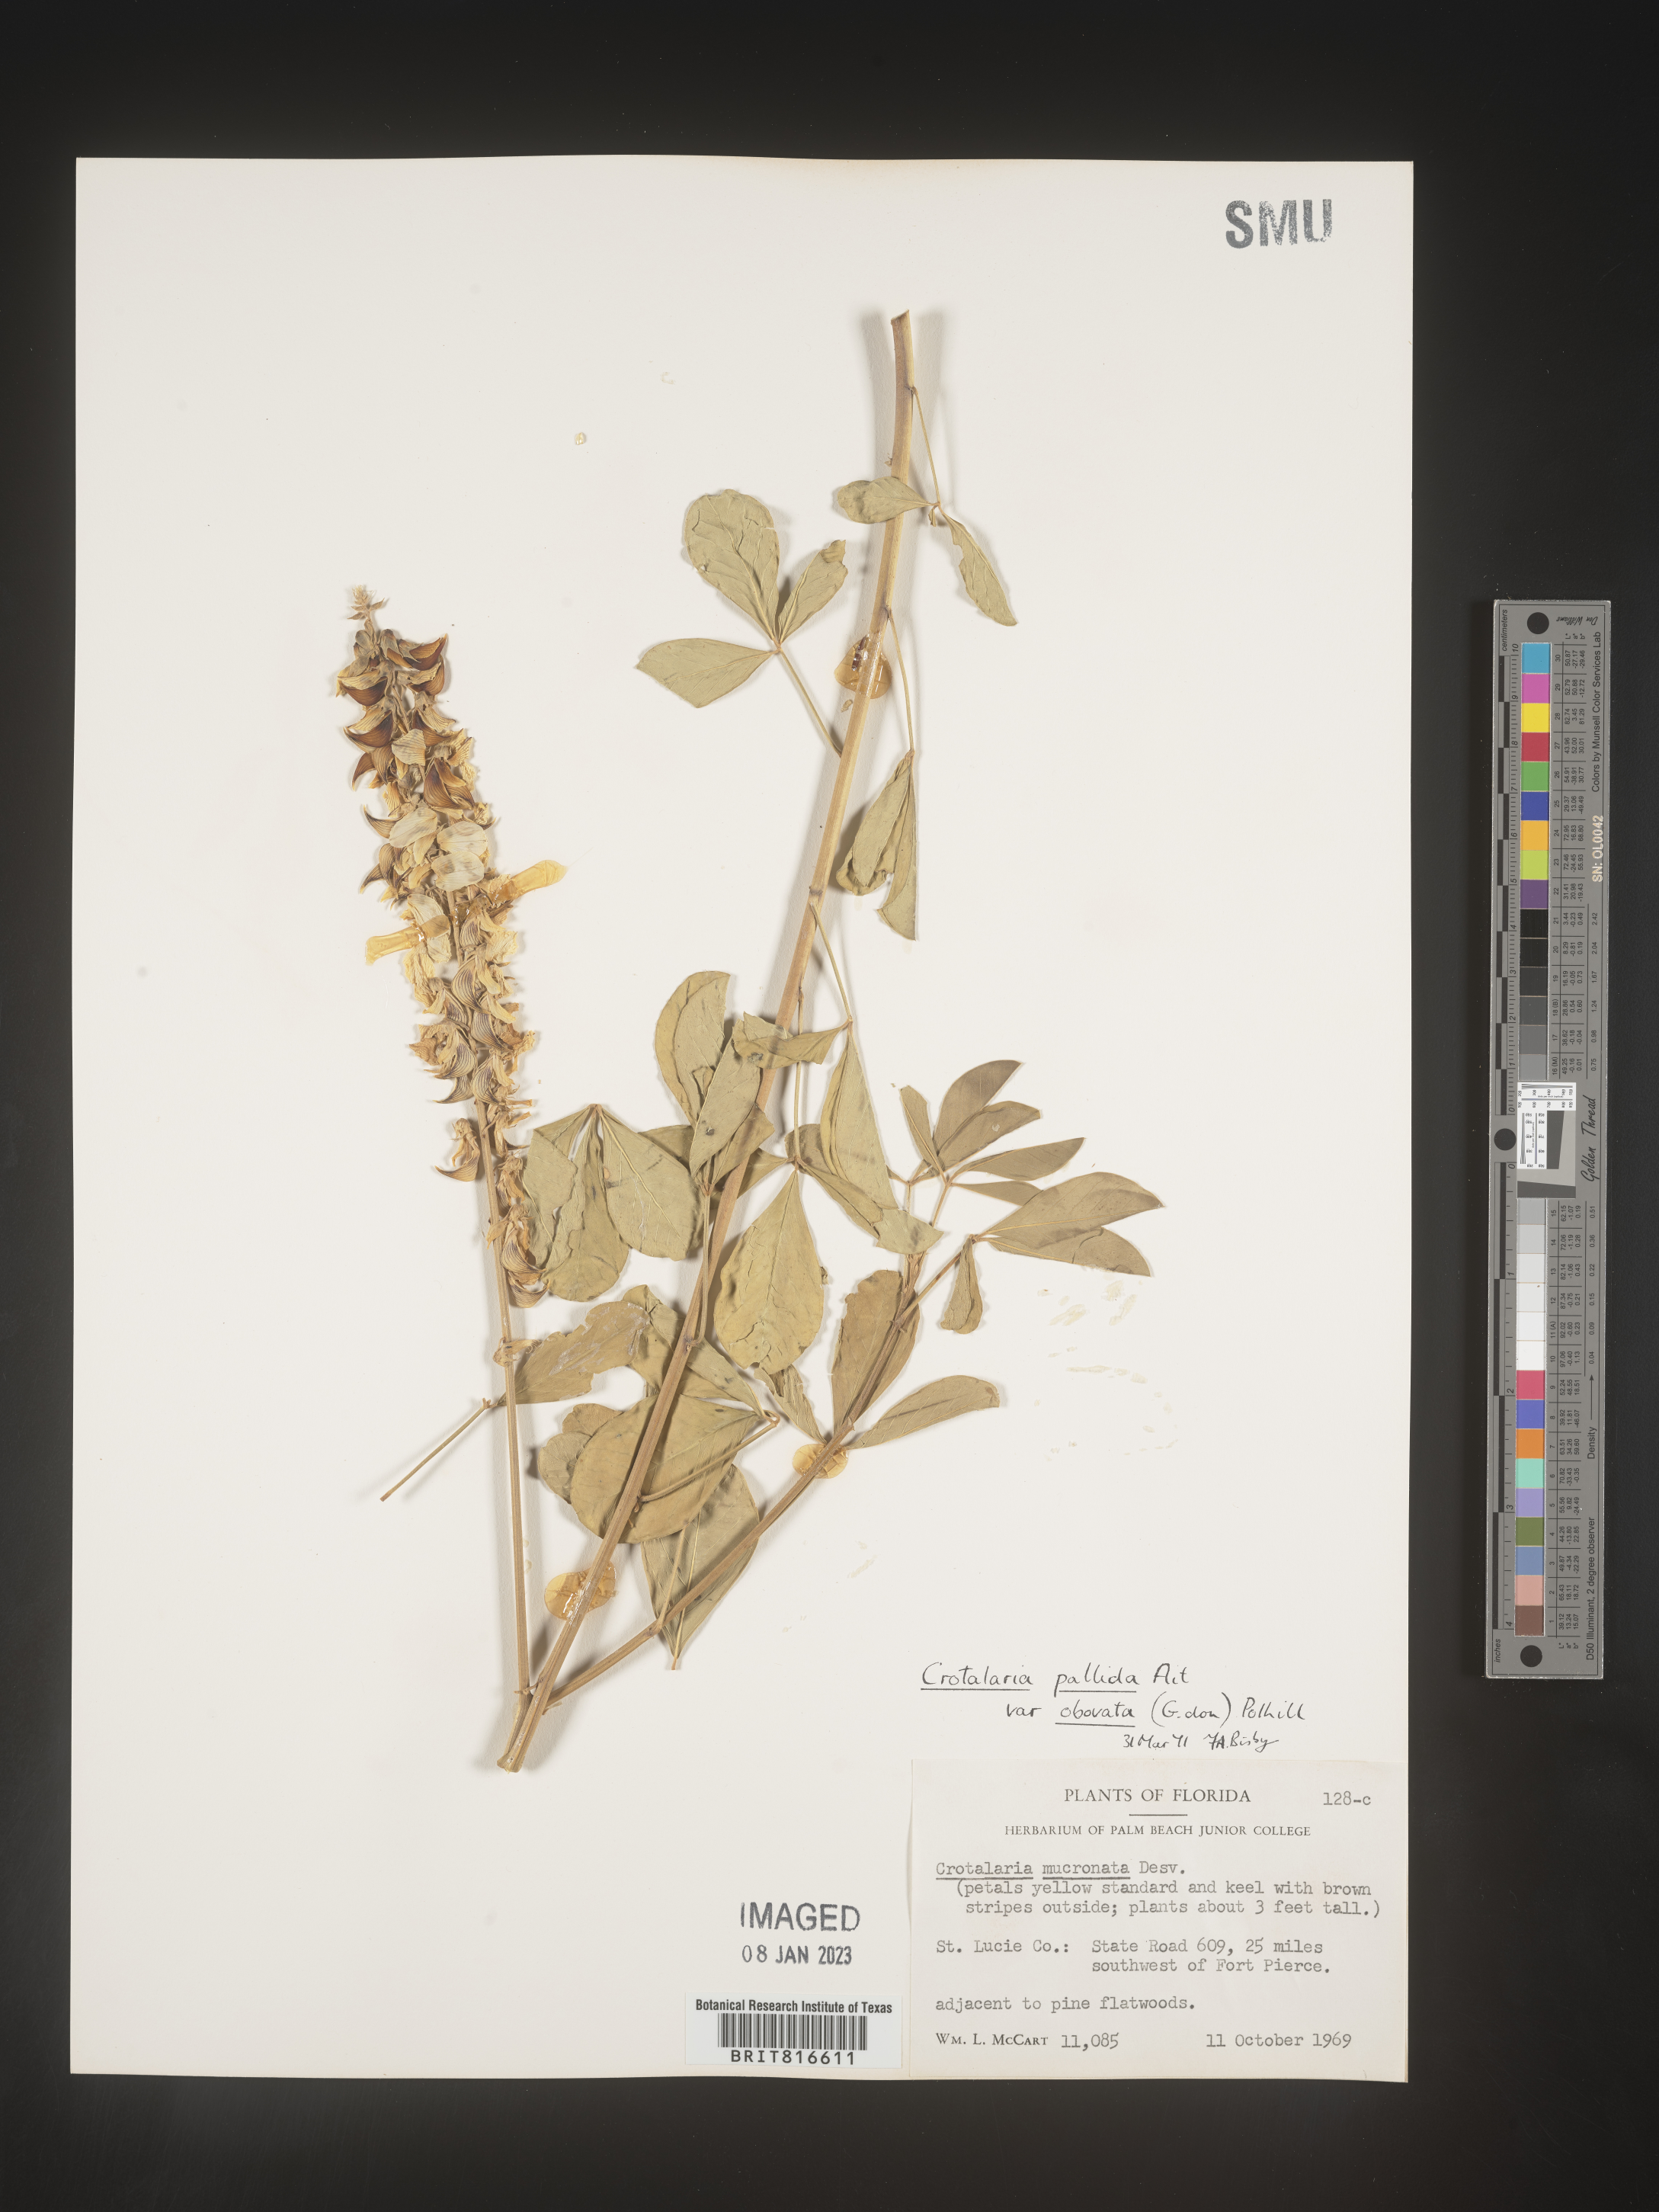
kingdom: Plantae
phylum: Tracheophyta
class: Magnoliopsida
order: Fabales
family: Fabaceae
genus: Crotalaria
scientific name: Crotalaria linifolia
